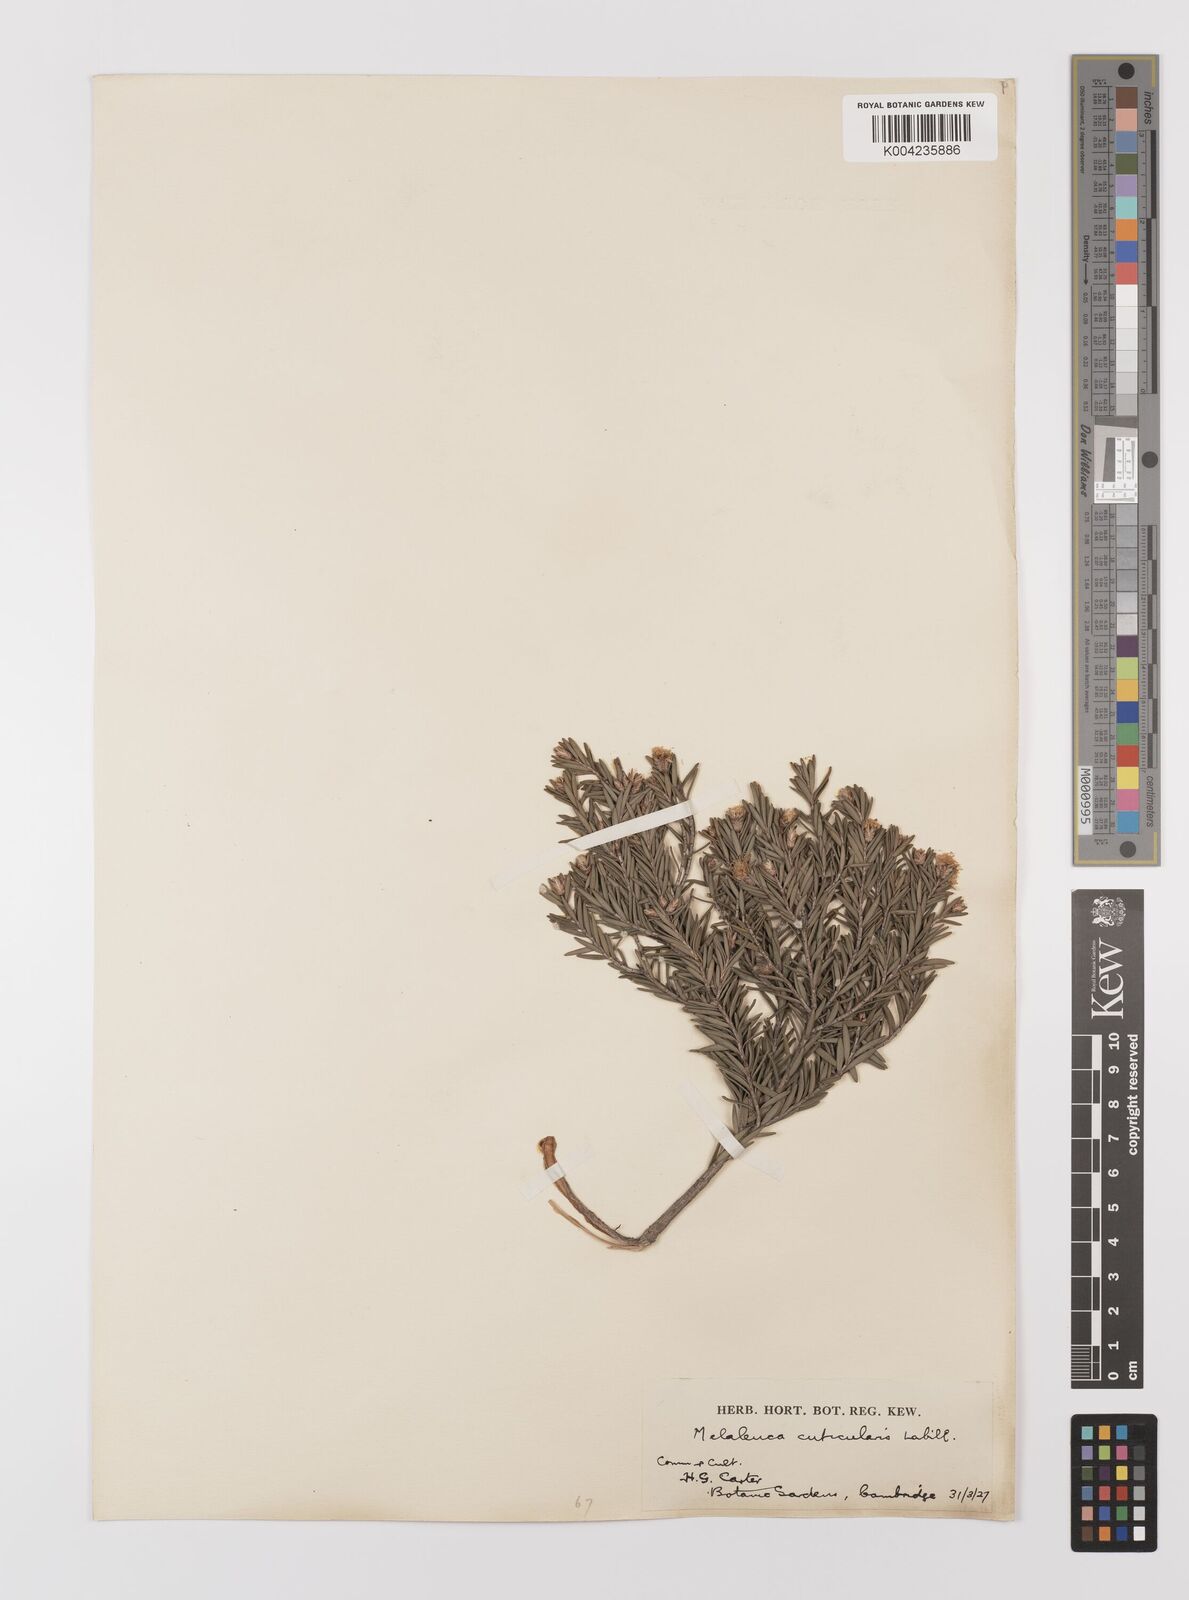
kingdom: Plantae
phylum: Tracheophyta
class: Magnoliopsida
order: Myrtales
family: Myrtaceae
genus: Melaleuca
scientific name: Melaleuca cuticularis
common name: Saltwater paperbark
